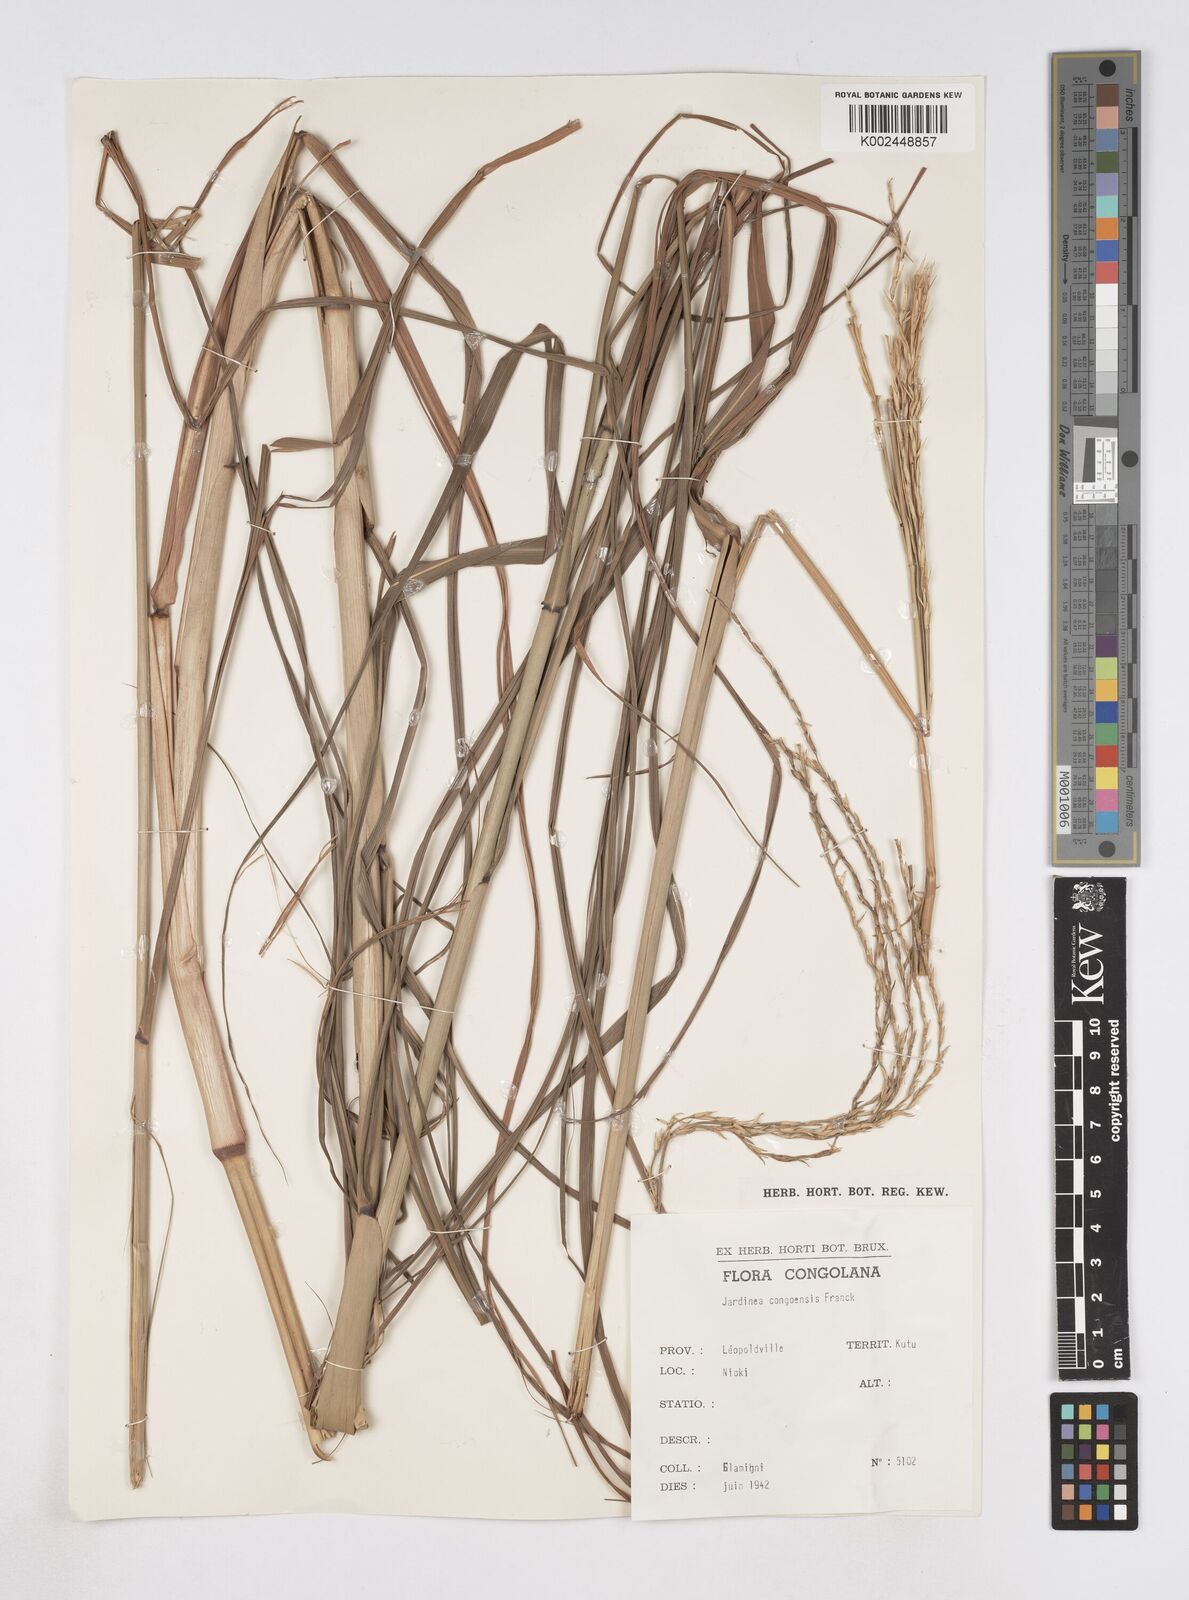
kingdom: Plantae
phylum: Tracheophyta
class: Liliopsida
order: Poales
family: Poaceae
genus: Phacelurus
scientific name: Phacelurus gabonensis
